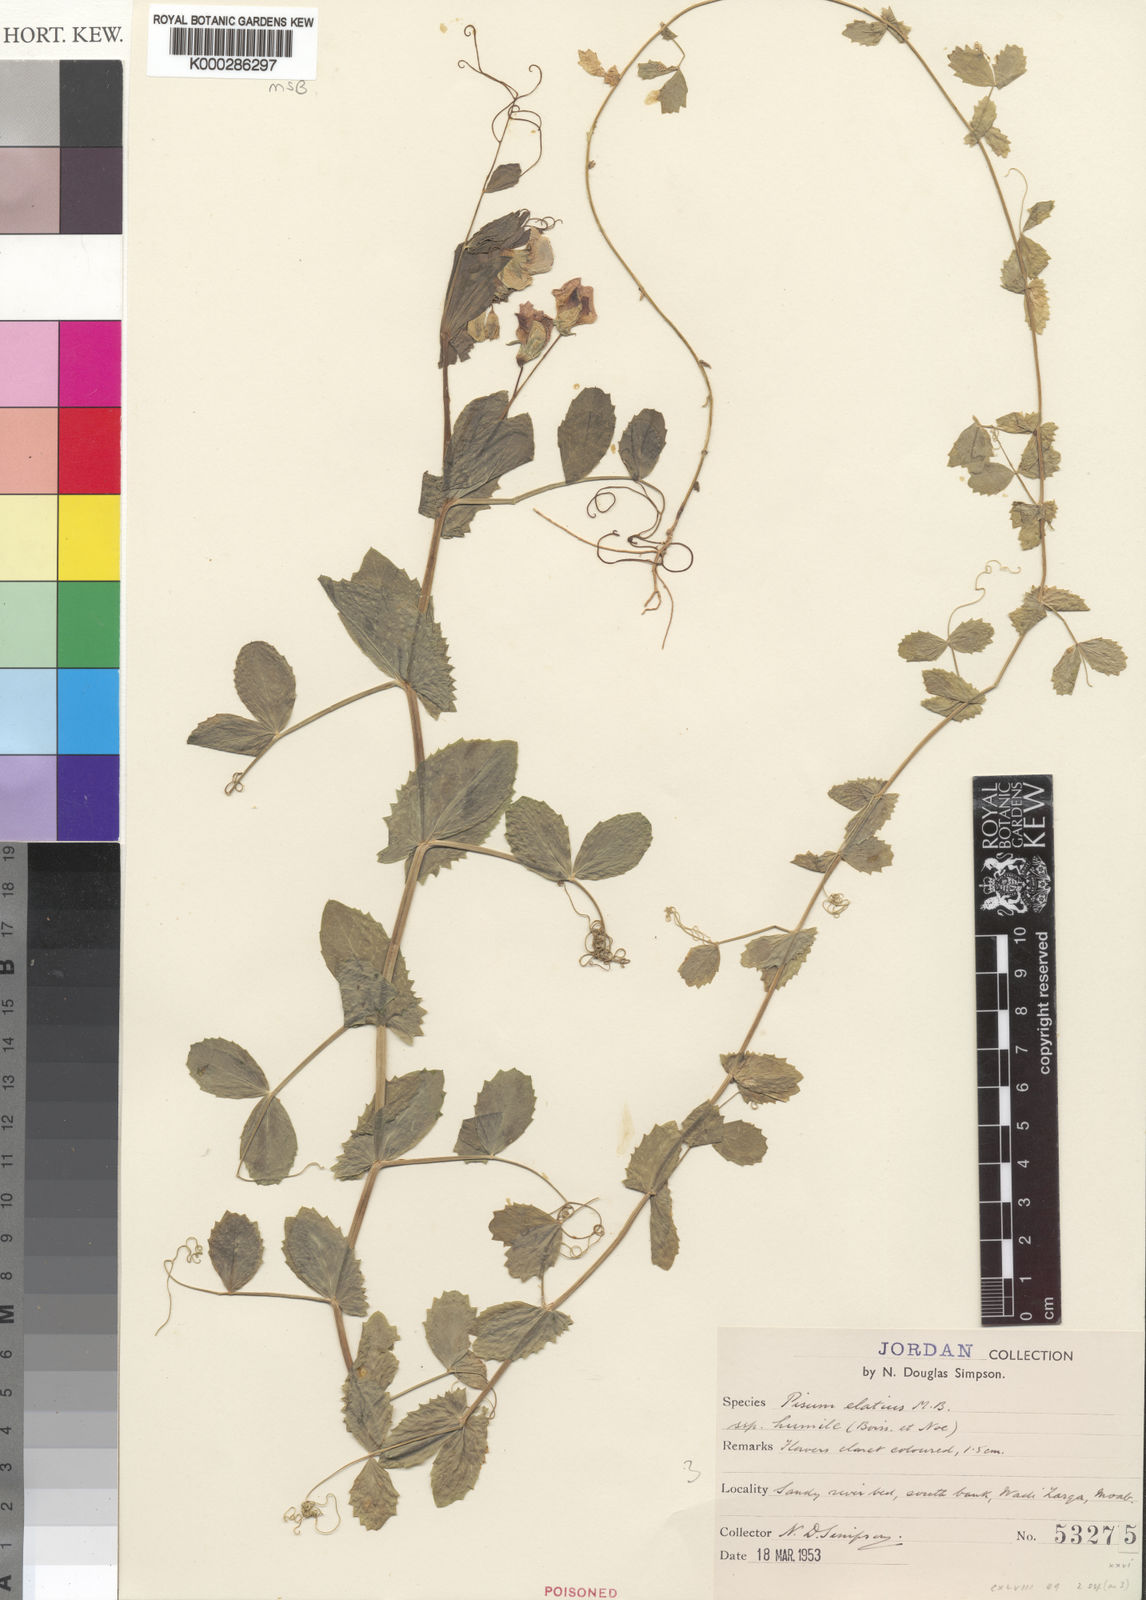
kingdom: Plantae
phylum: Tracheophyta
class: Magnoliopsida
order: Fabales
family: Fabaceae
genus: Lathyrus
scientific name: Lathyrus fulvus
